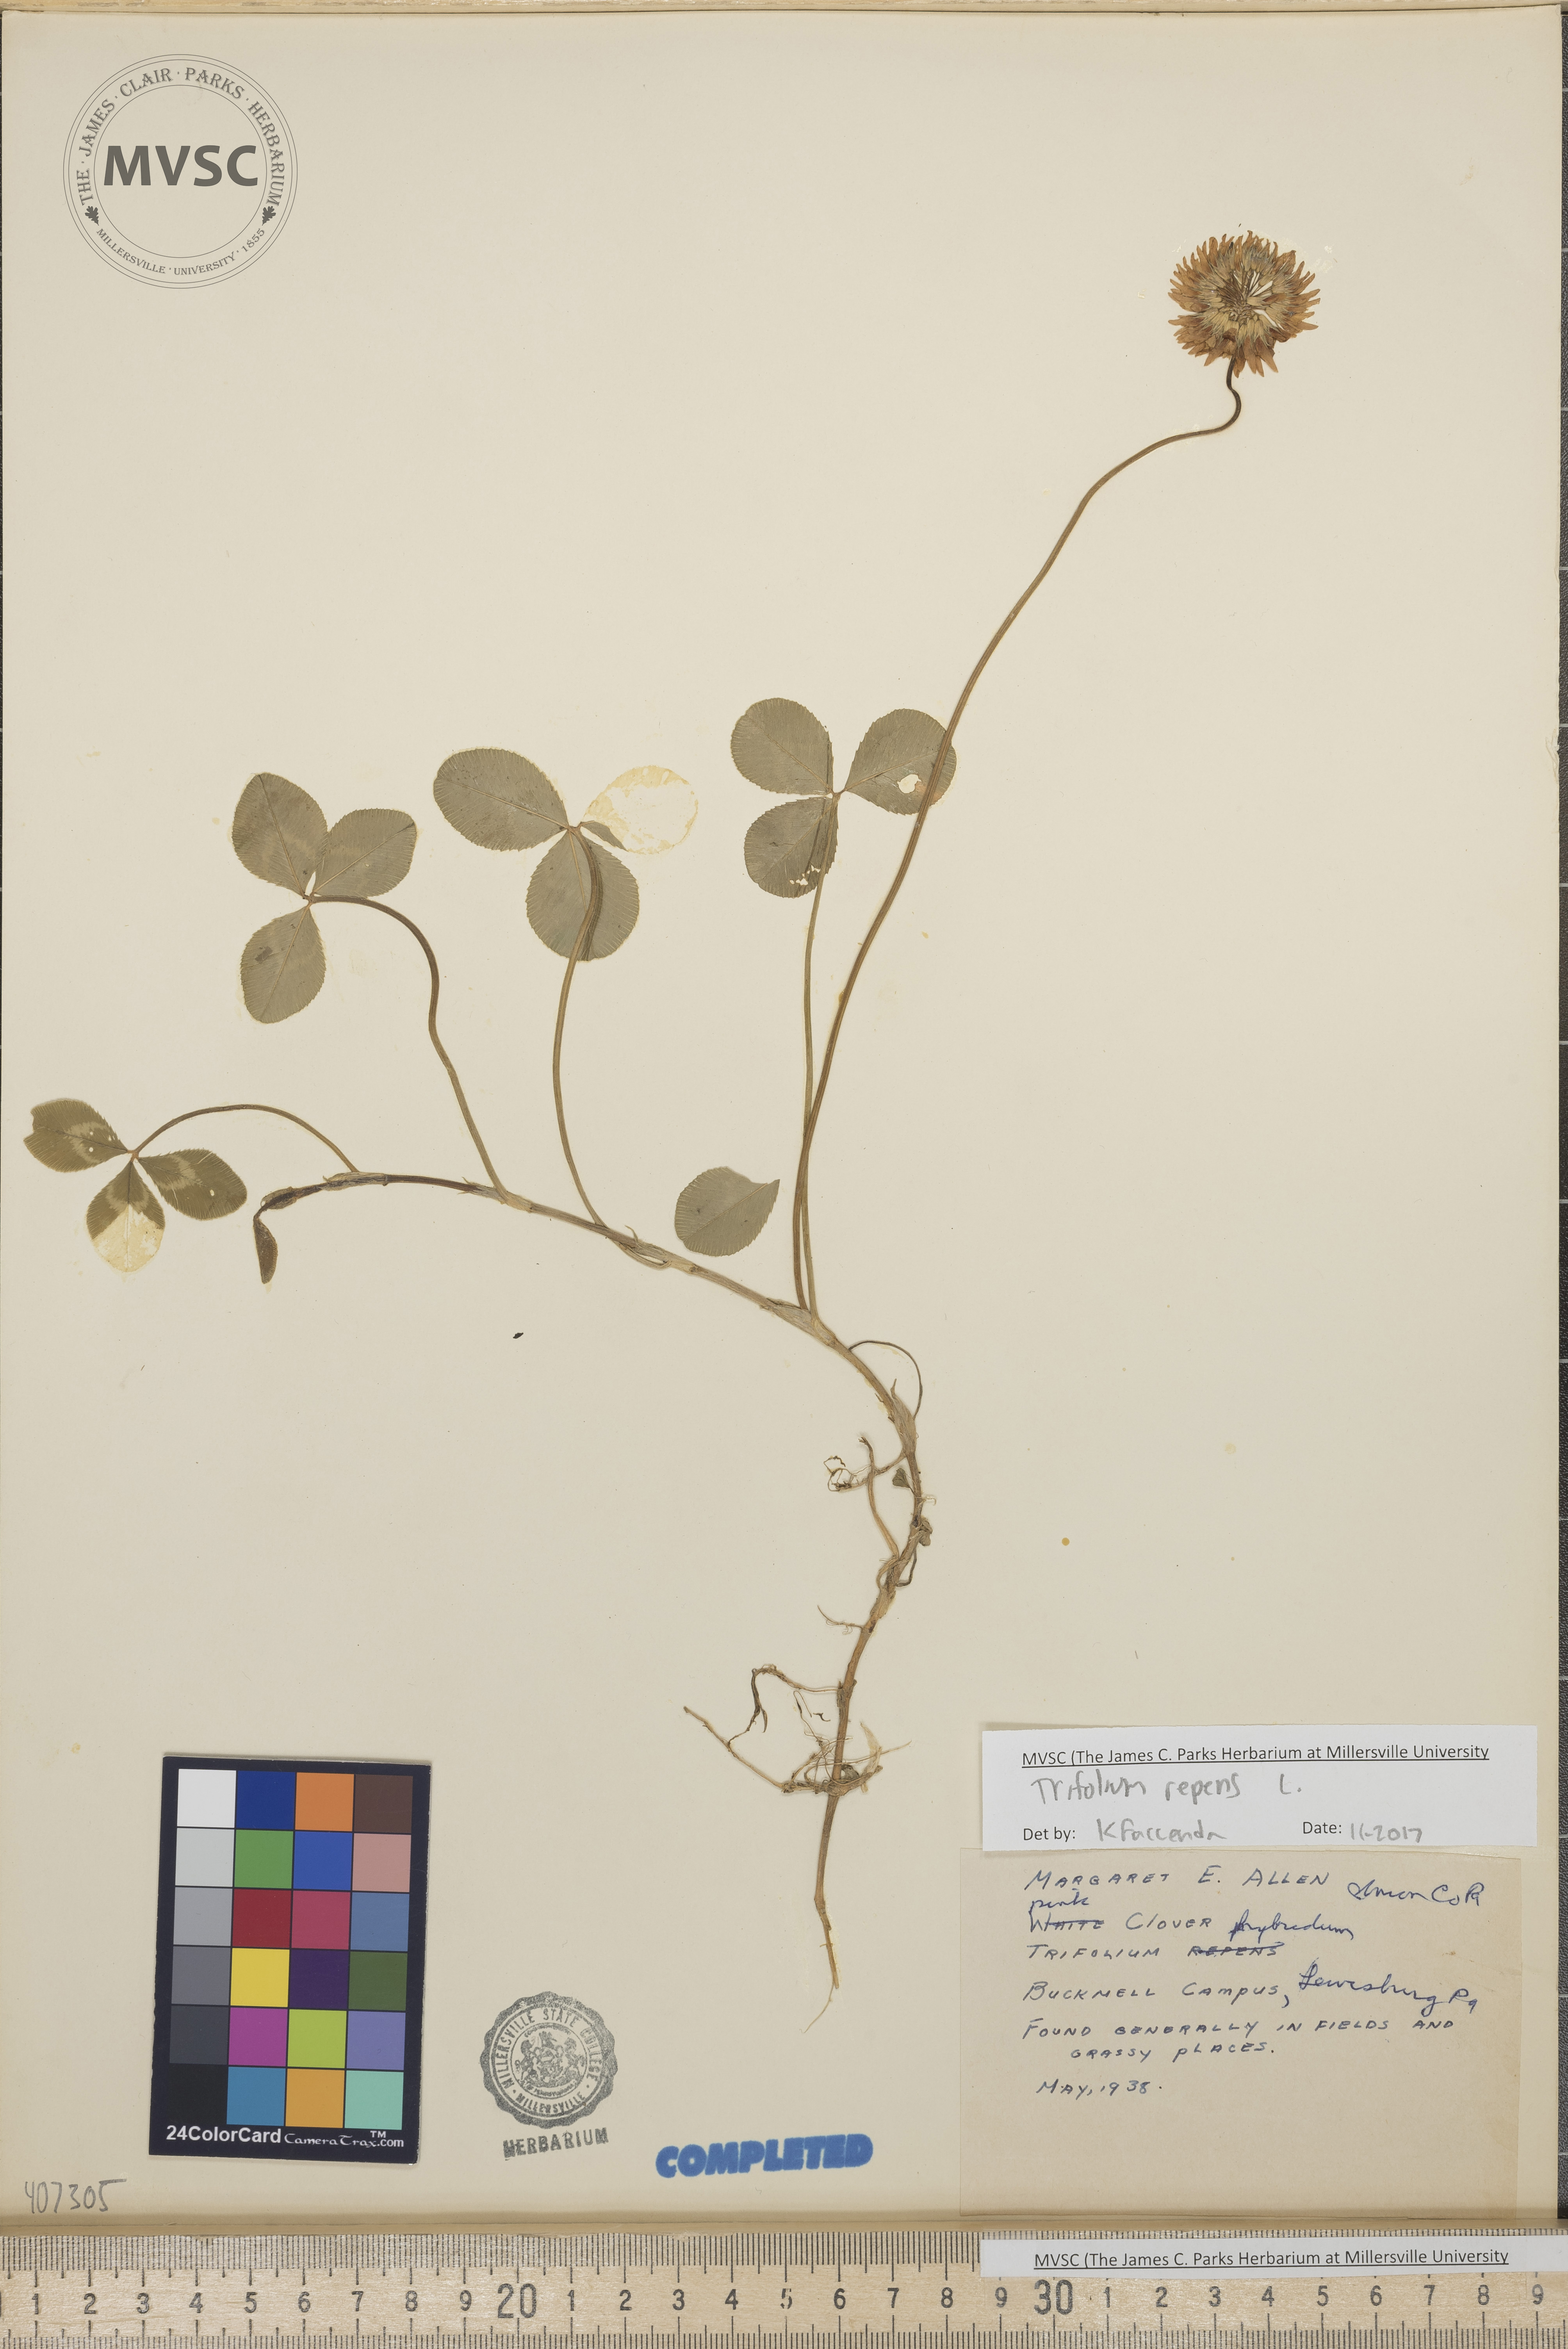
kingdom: Plantae
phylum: Tracheophyta
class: Magnoliopsida
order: Fabales
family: Fabaceae
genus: Trifolium
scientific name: Trifolium repens
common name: White clover
